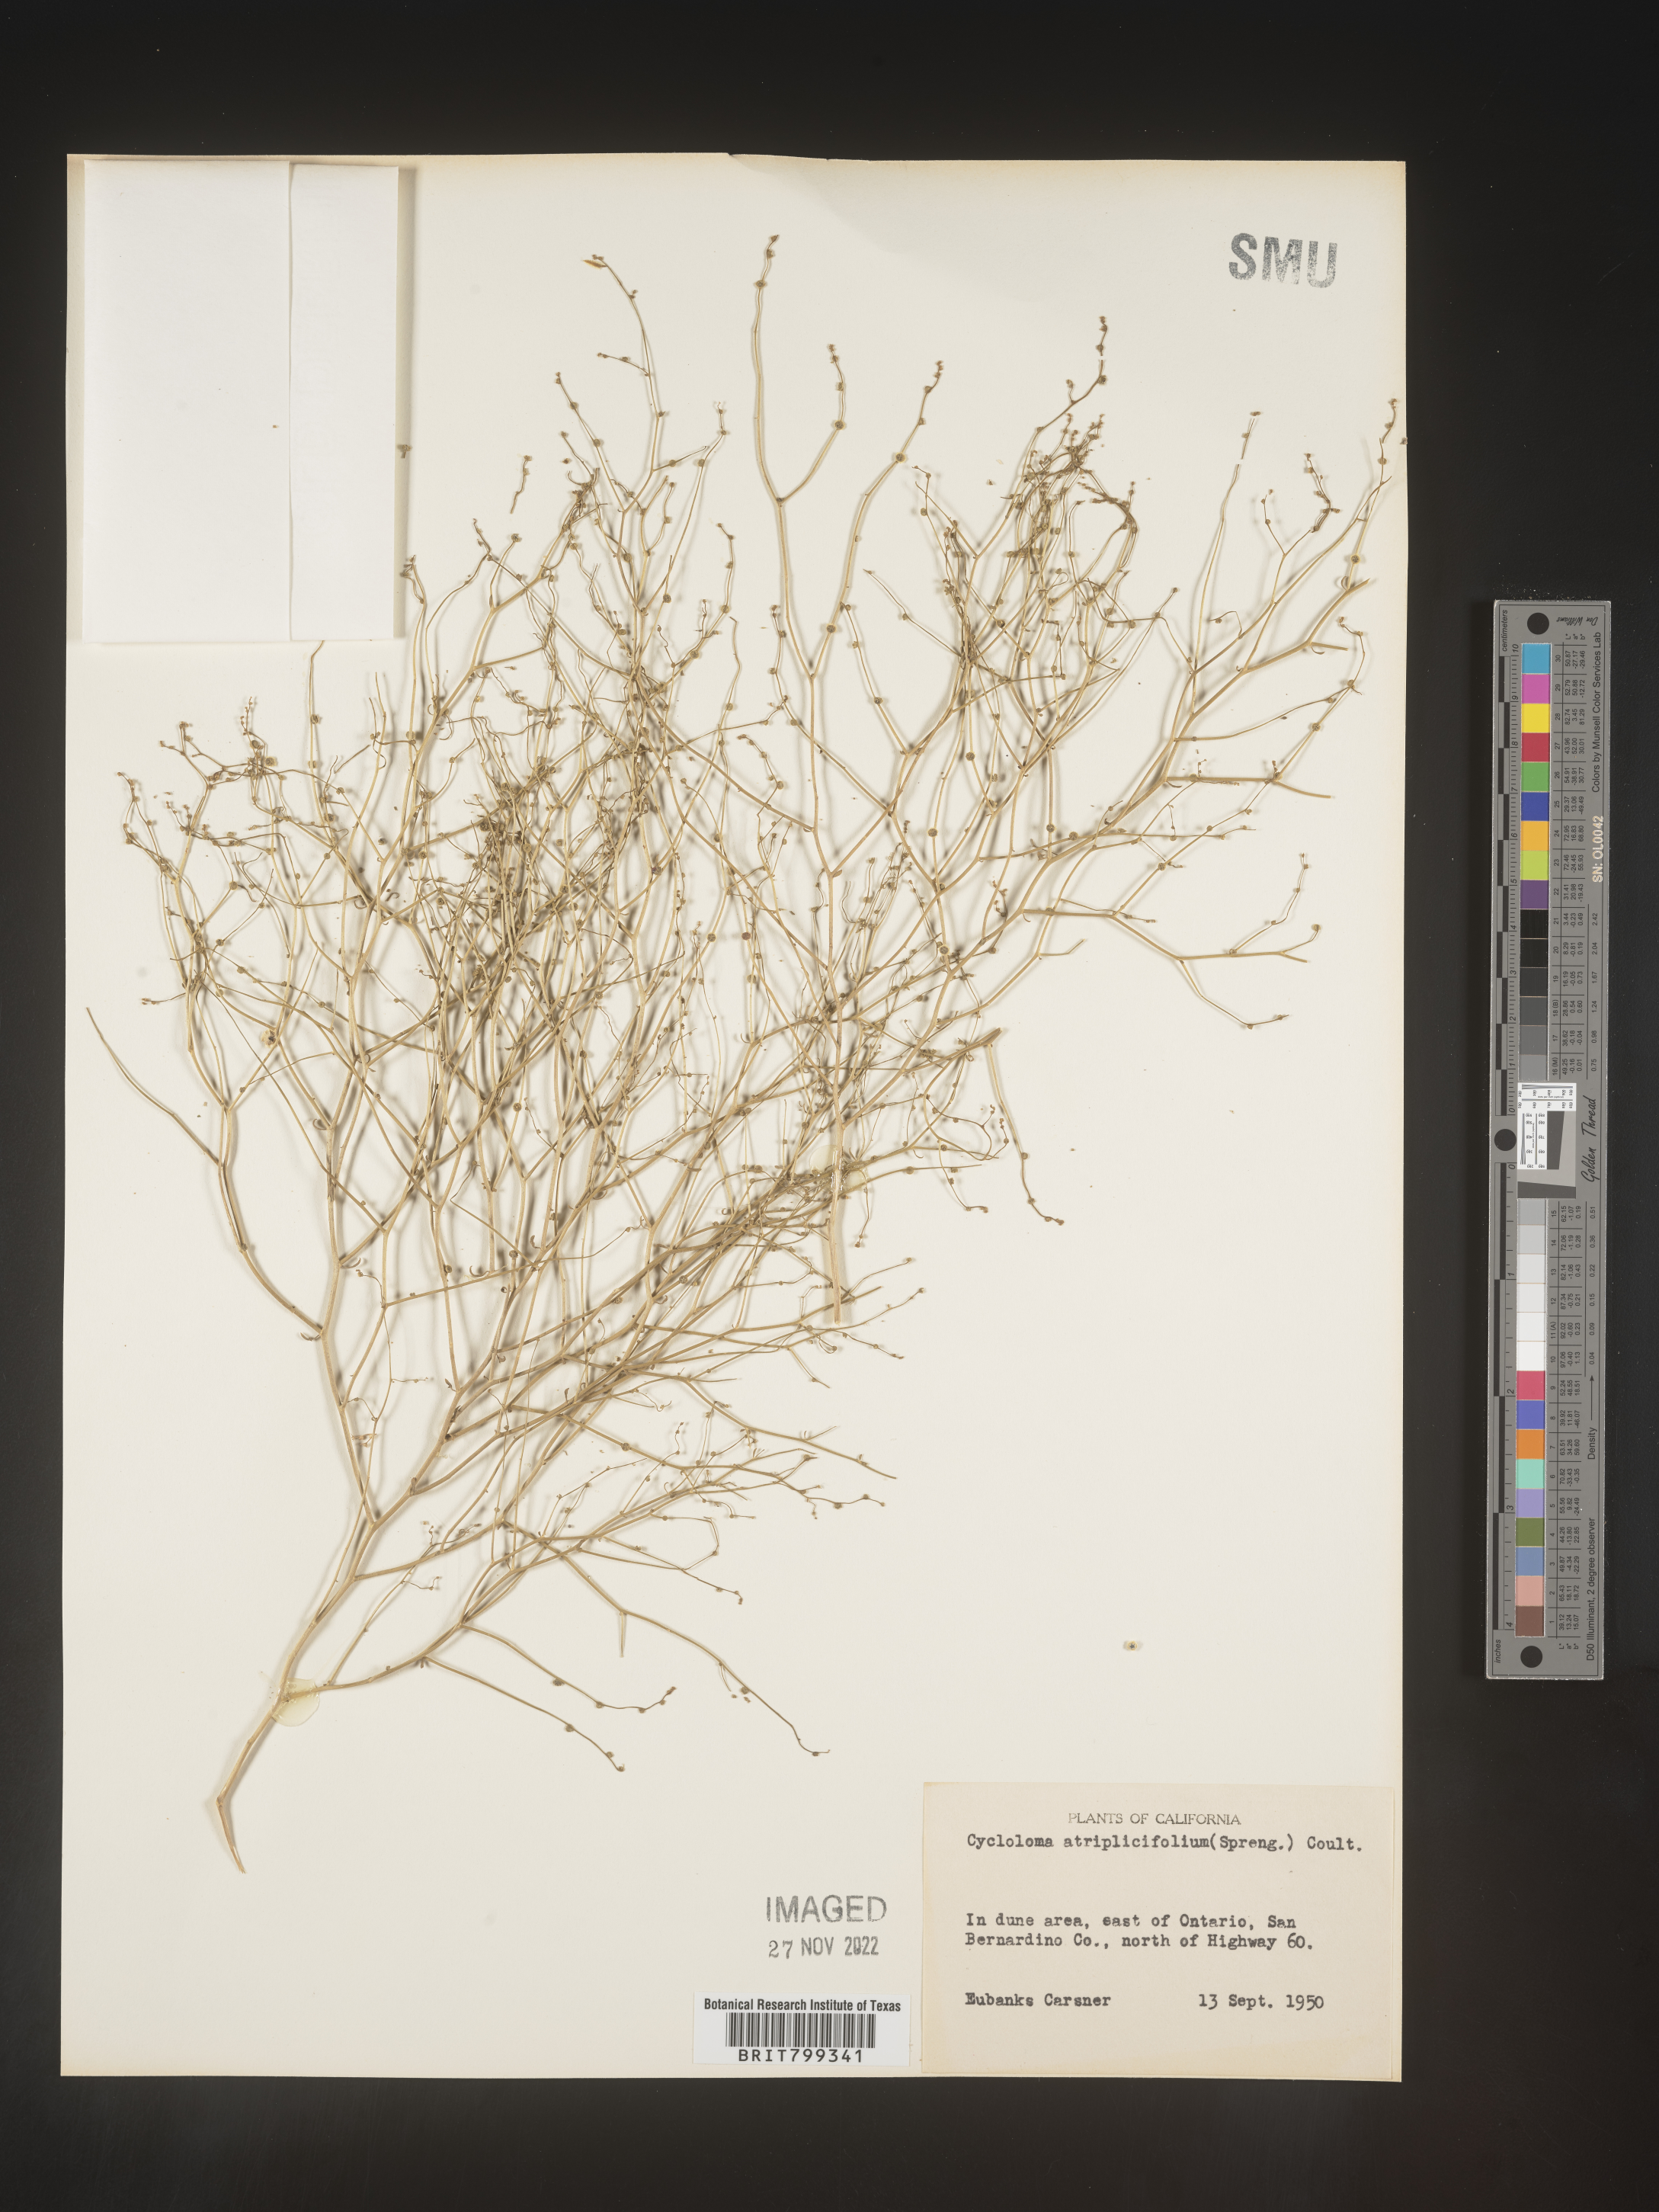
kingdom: Plantae
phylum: Tracheophyta
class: Magnoliopsida
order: Caryophyllales
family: Amaranthaceae
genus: Dysphania
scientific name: Dysphania atriplicifolia
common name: Plains tumbleweed
